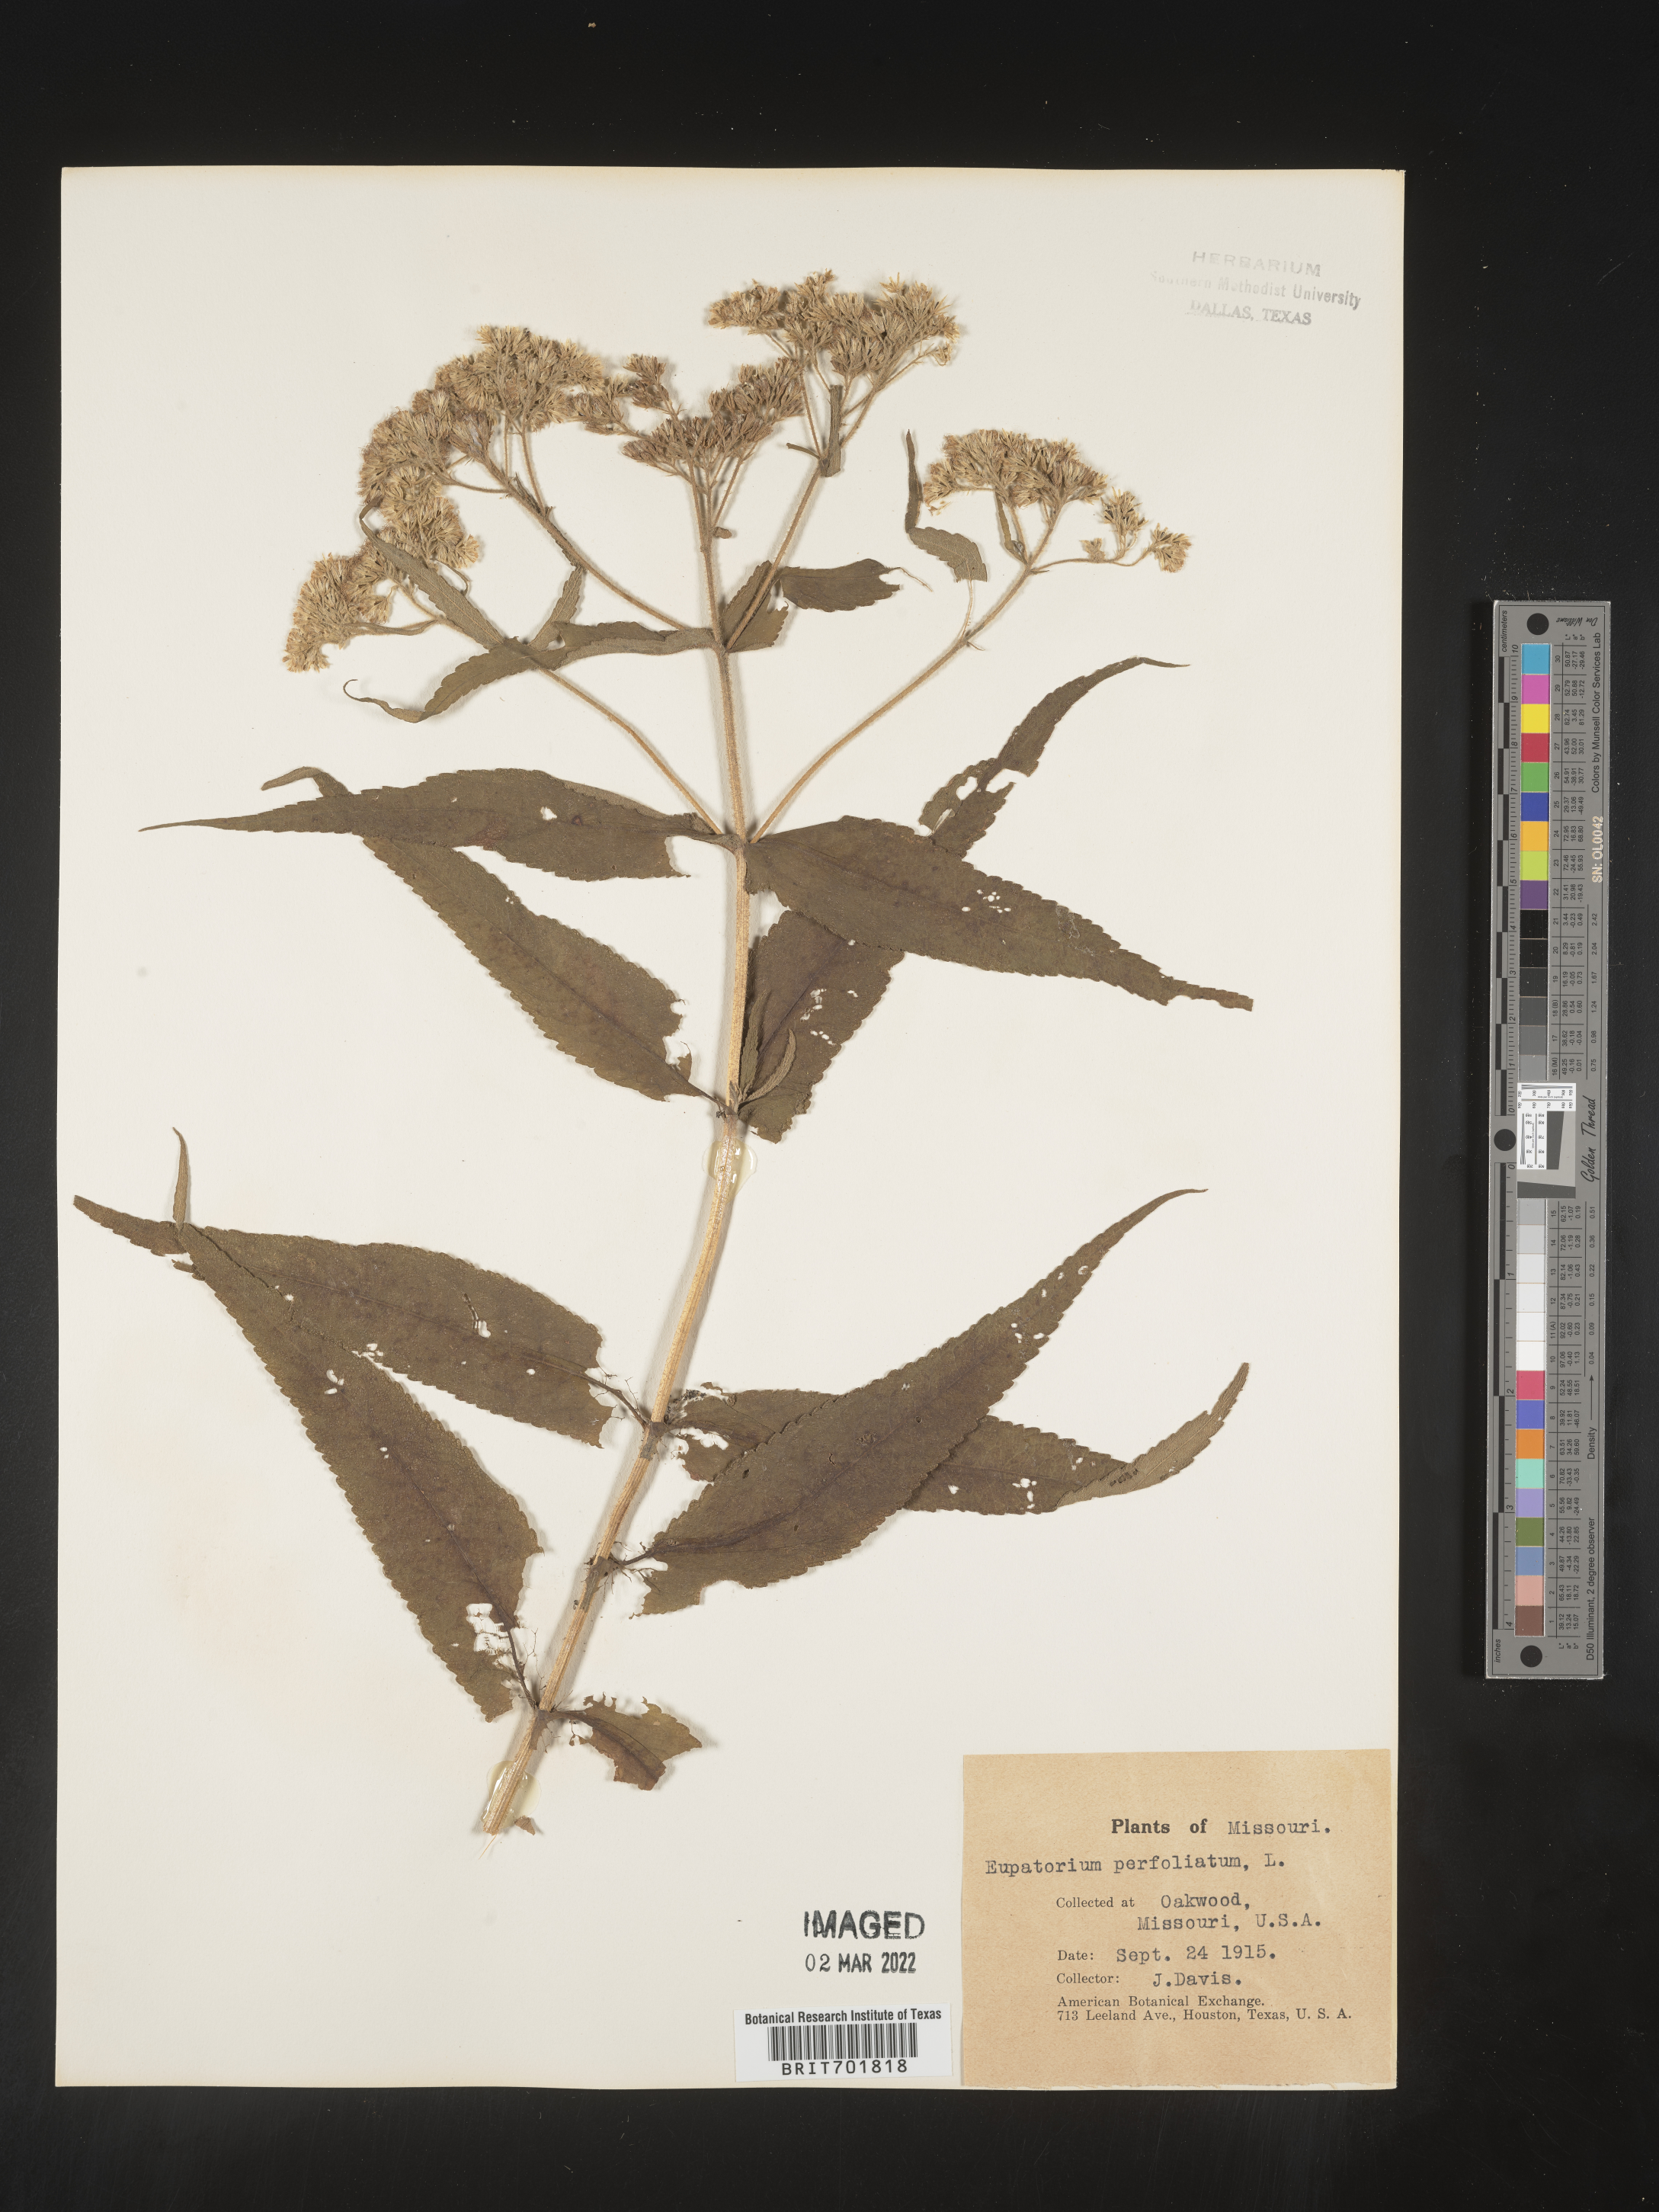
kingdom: Plantae
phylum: Tracheophyta
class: Magnoliopsida
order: Asterales
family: Asteraceae
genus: Eupatorium
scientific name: Eupatorium perfoliatum
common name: Boneset
